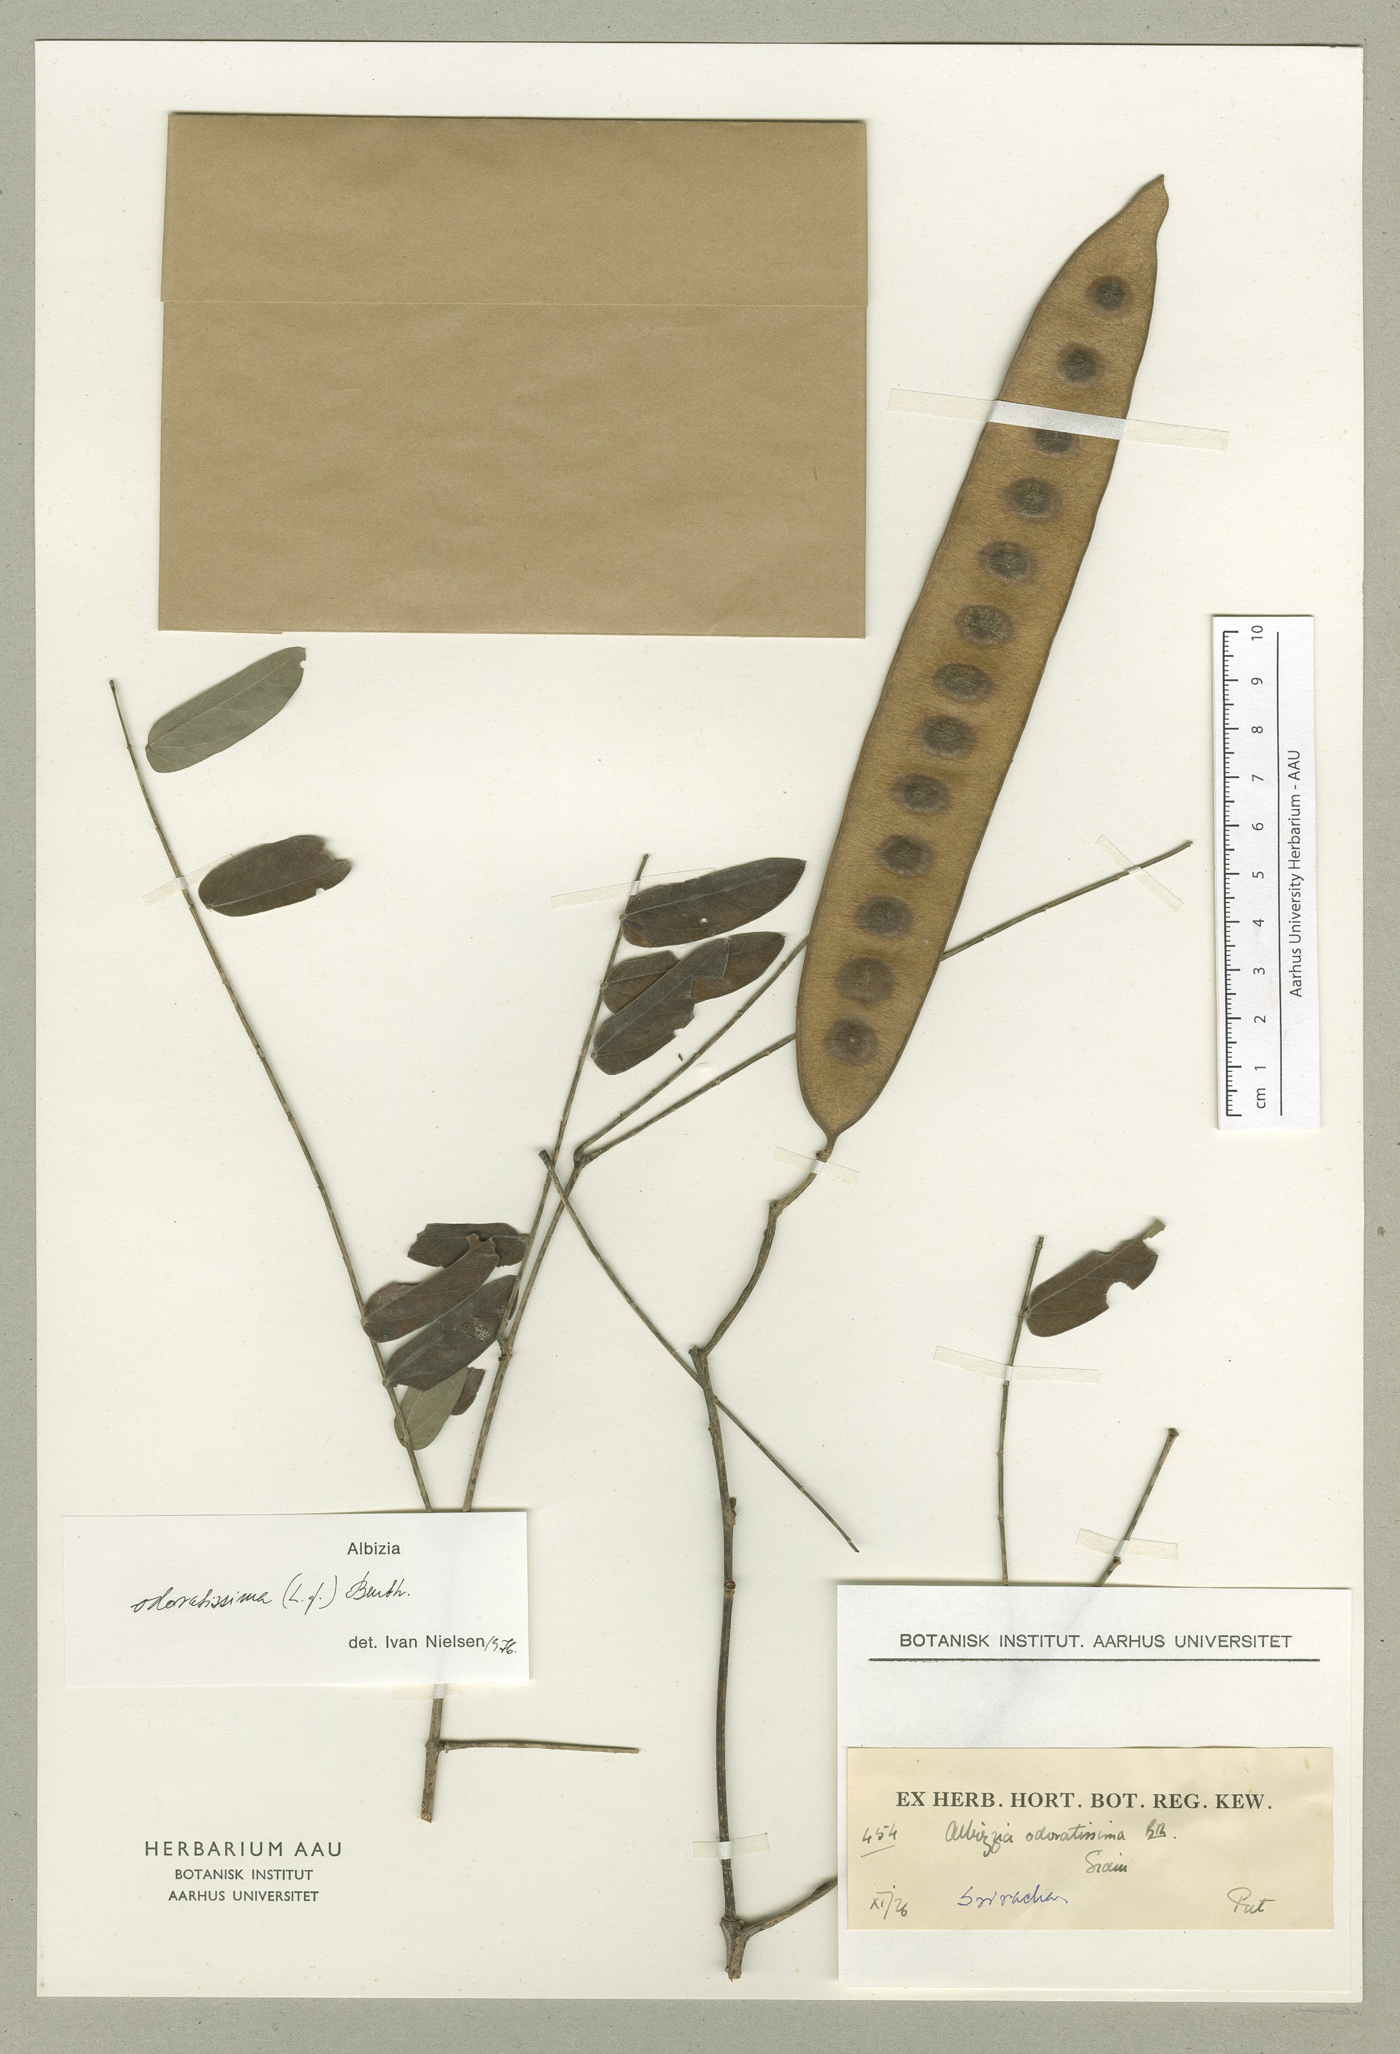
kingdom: Plantae
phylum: Tracheophyta
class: Magnoliopsida
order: Fabales
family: Fabaceae
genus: Albizia
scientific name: Albizia odoratissima
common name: Ceylon rosewood
